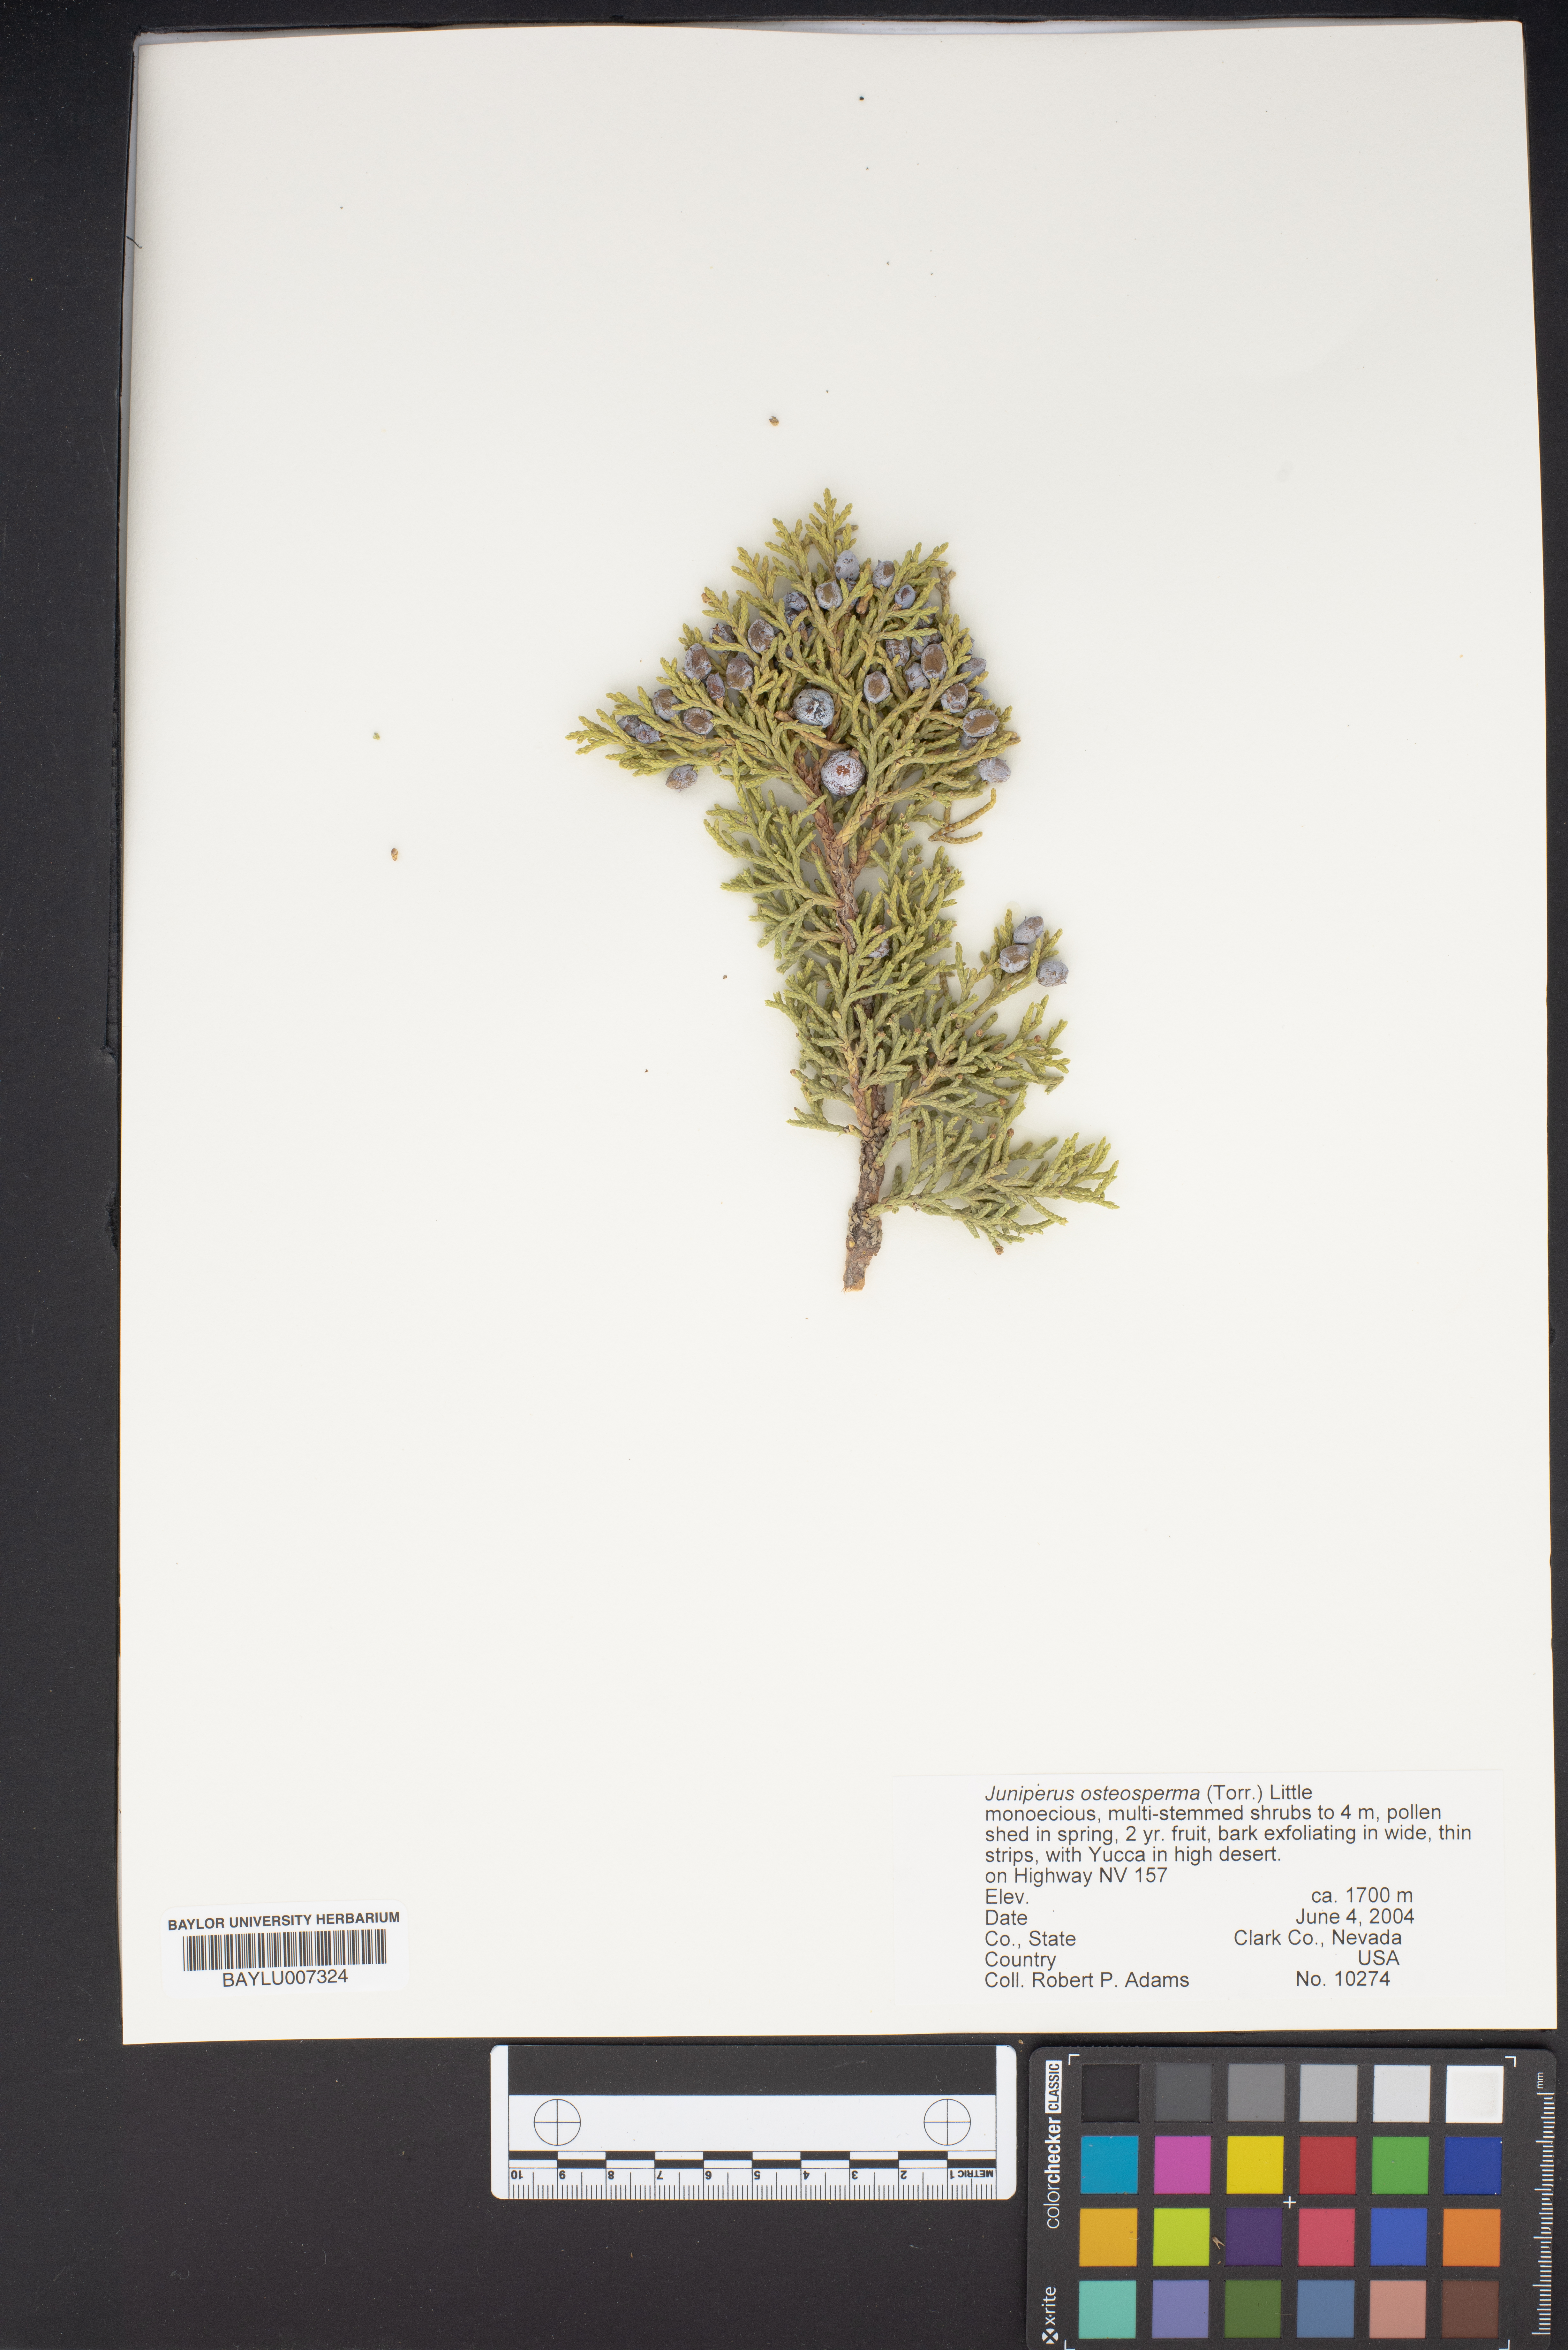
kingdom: Plantae
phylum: Tracheophyta
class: Pinopsida
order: Pinales
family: Cupressaceae
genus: Juniperus
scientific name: Juniperus osteosperma
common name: Utah juniper
